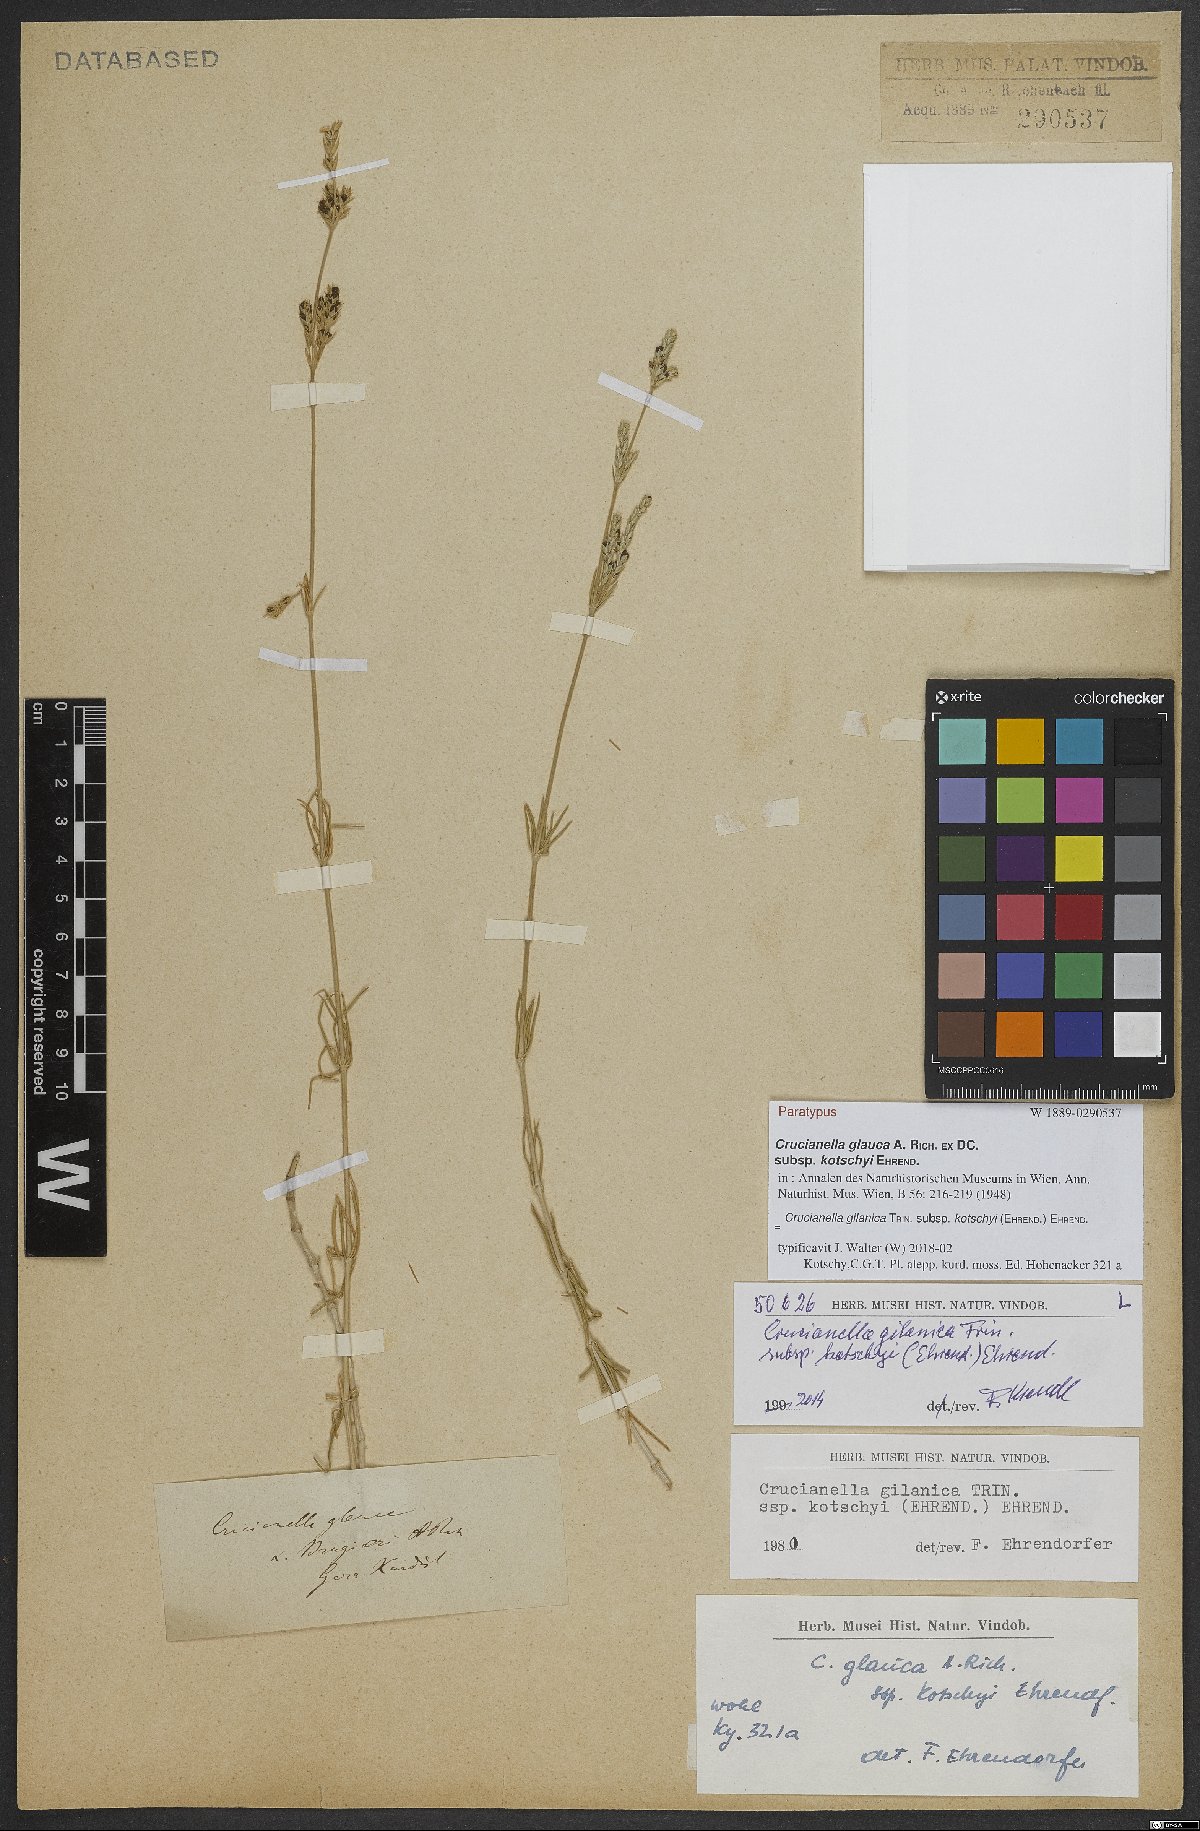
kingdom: Plantae
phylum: Tracheophyta
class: Magnoliopsida
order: Gentianales
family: Rubiaceae
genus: Crucianella
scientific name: Crucianella gilanica
